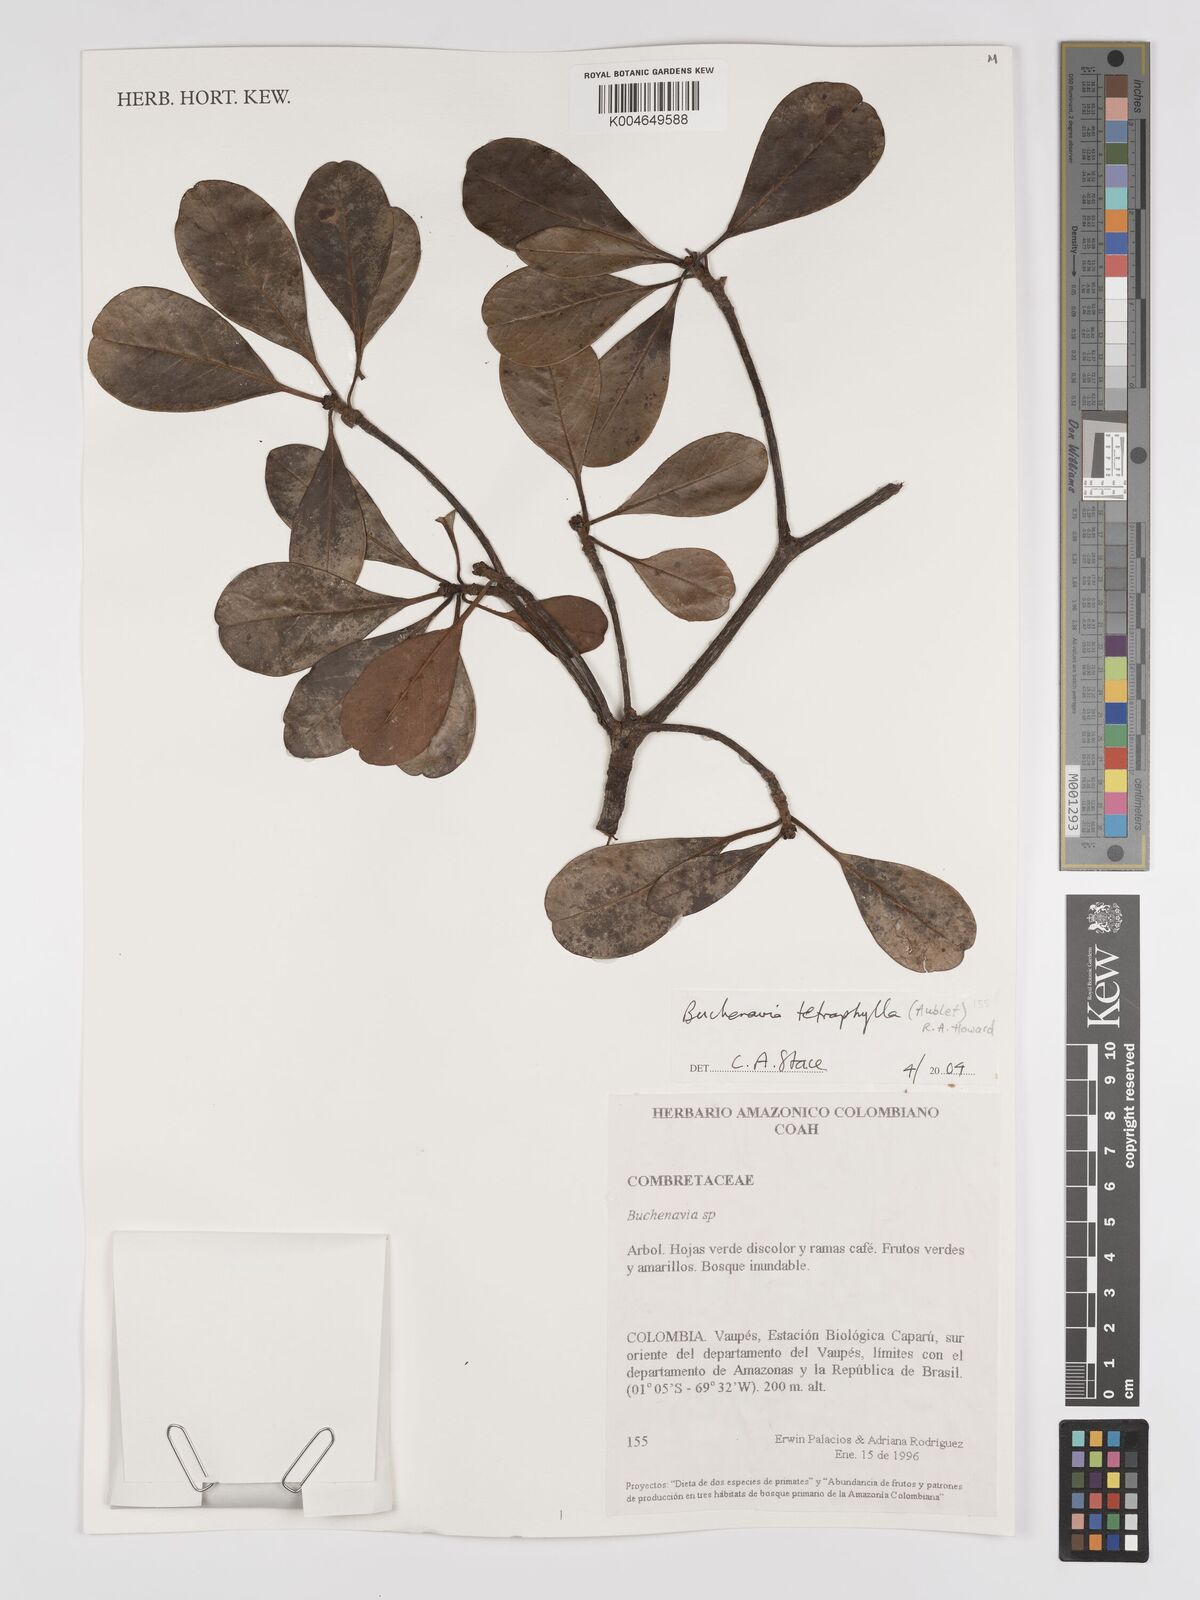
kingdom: Plantae
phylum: Tracheophyta
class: Magnoliopsida
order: Myrtales
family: Combretaceae
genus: Terminalia
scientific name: Terminalia tetraphylla
